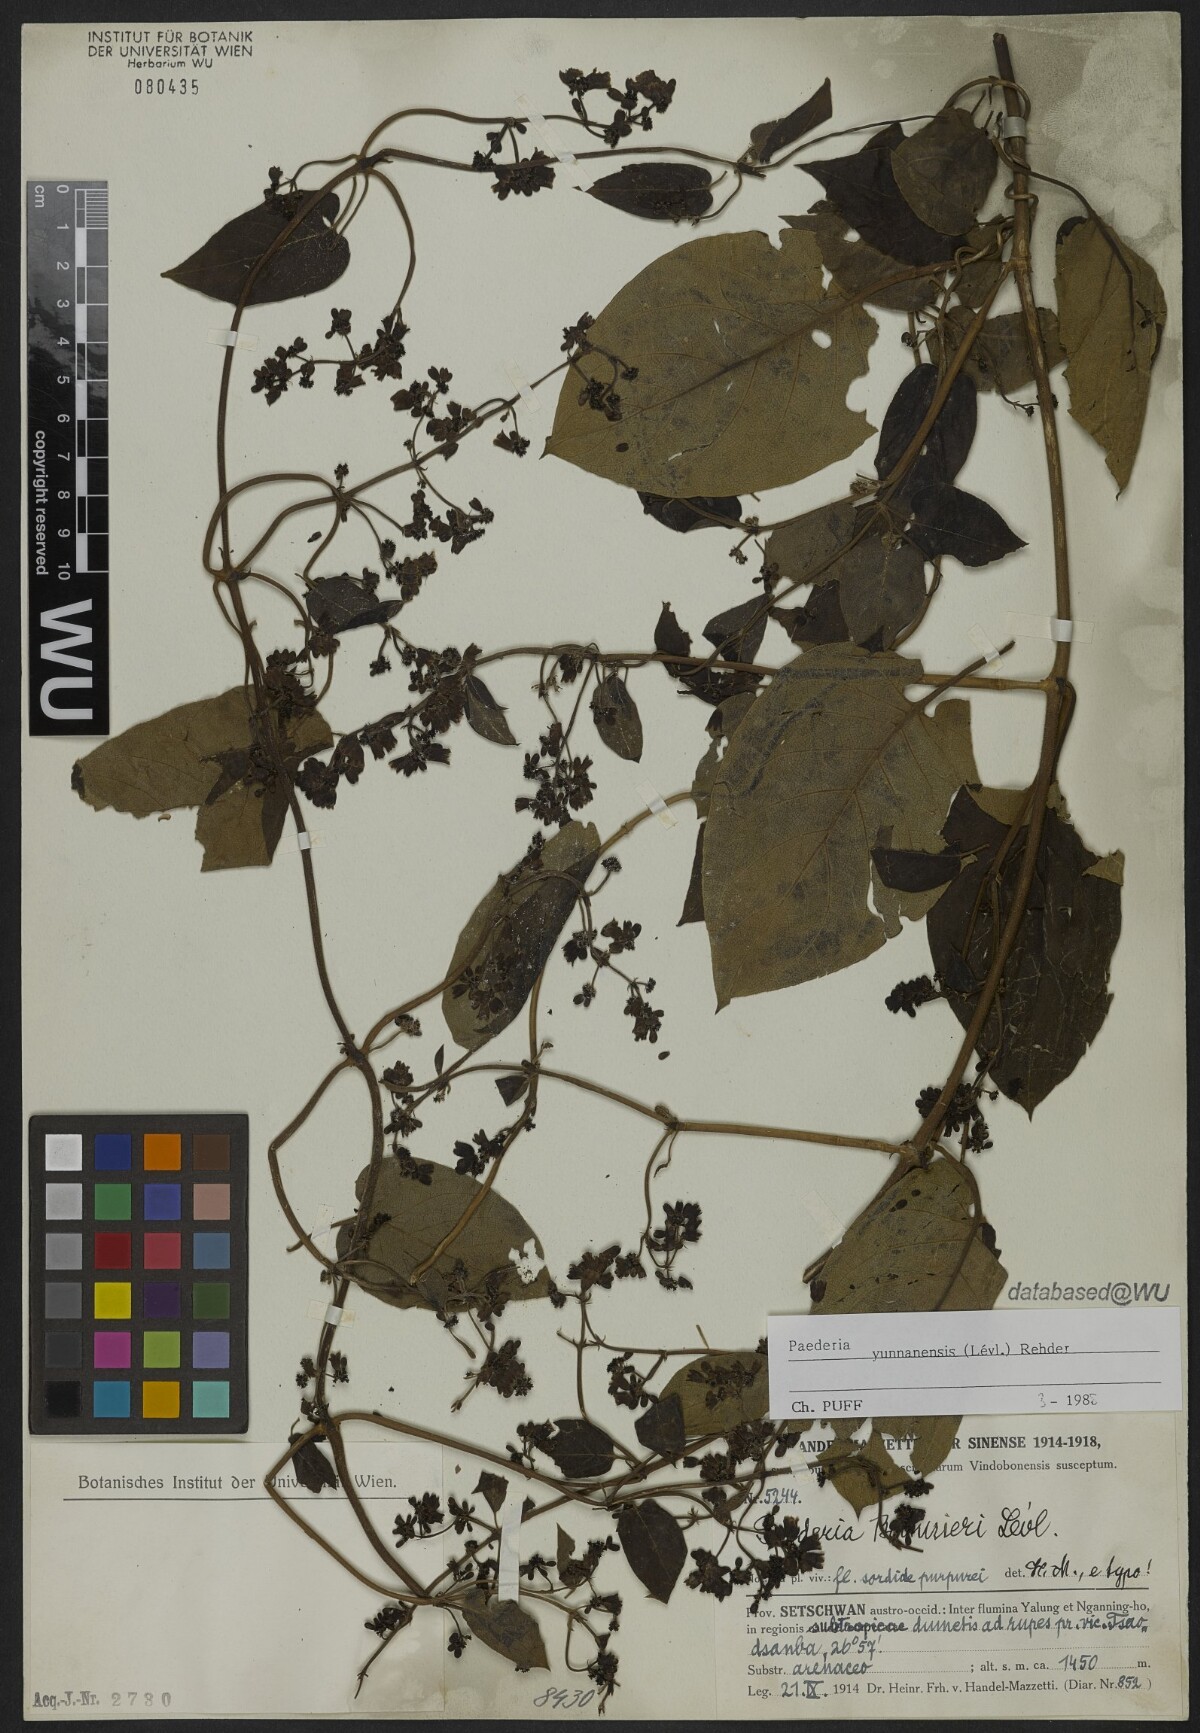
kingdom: Plantae
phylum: Tracheophyta
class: Magnoliopsida
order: Gentianales
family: Rubiaceae
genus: Paederia
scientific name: Paederia yunnanensis
